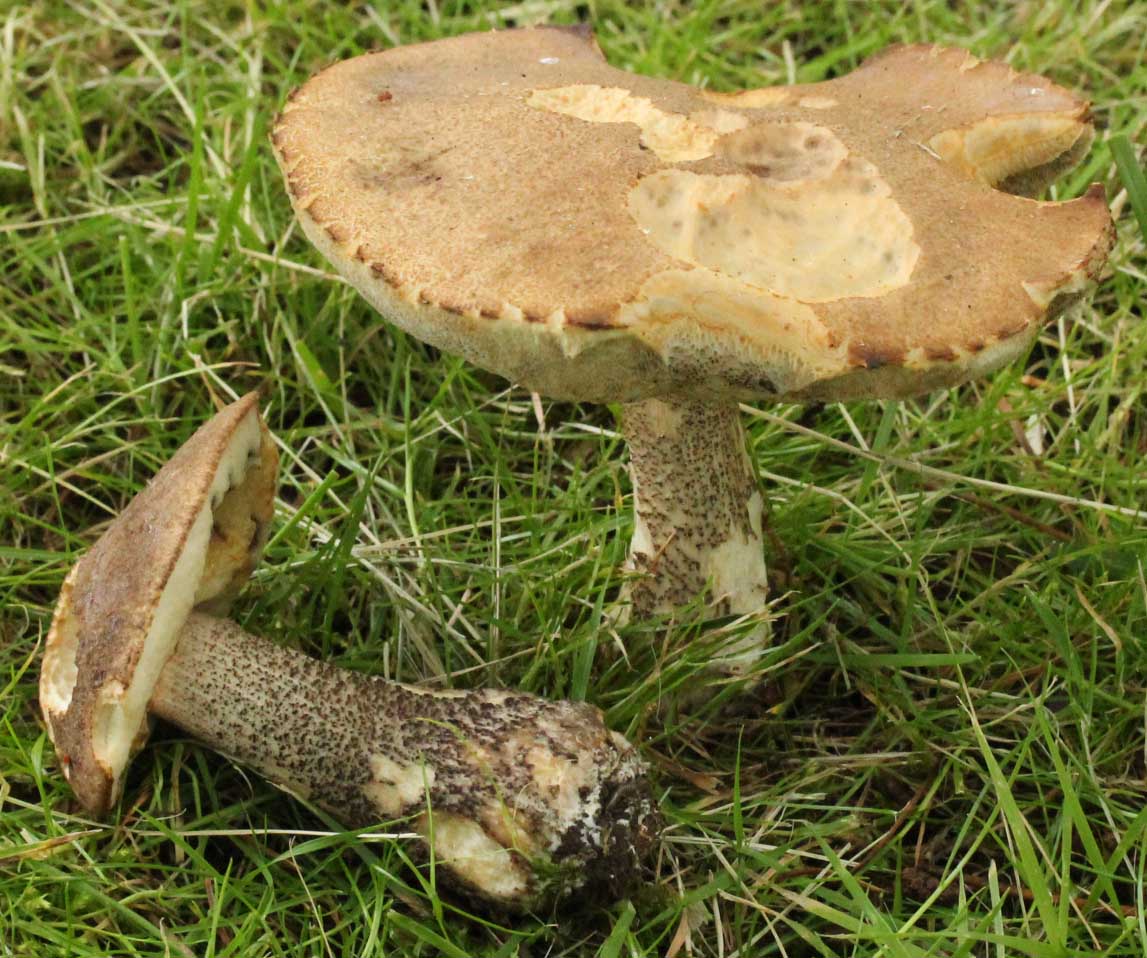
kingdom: Fungi
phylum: Basidiomycota
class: Agaricomycetes
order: Boletales
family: Boletaceae
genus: Leccinum
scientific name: Leccinum scabrum
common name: brun skælrørhat
